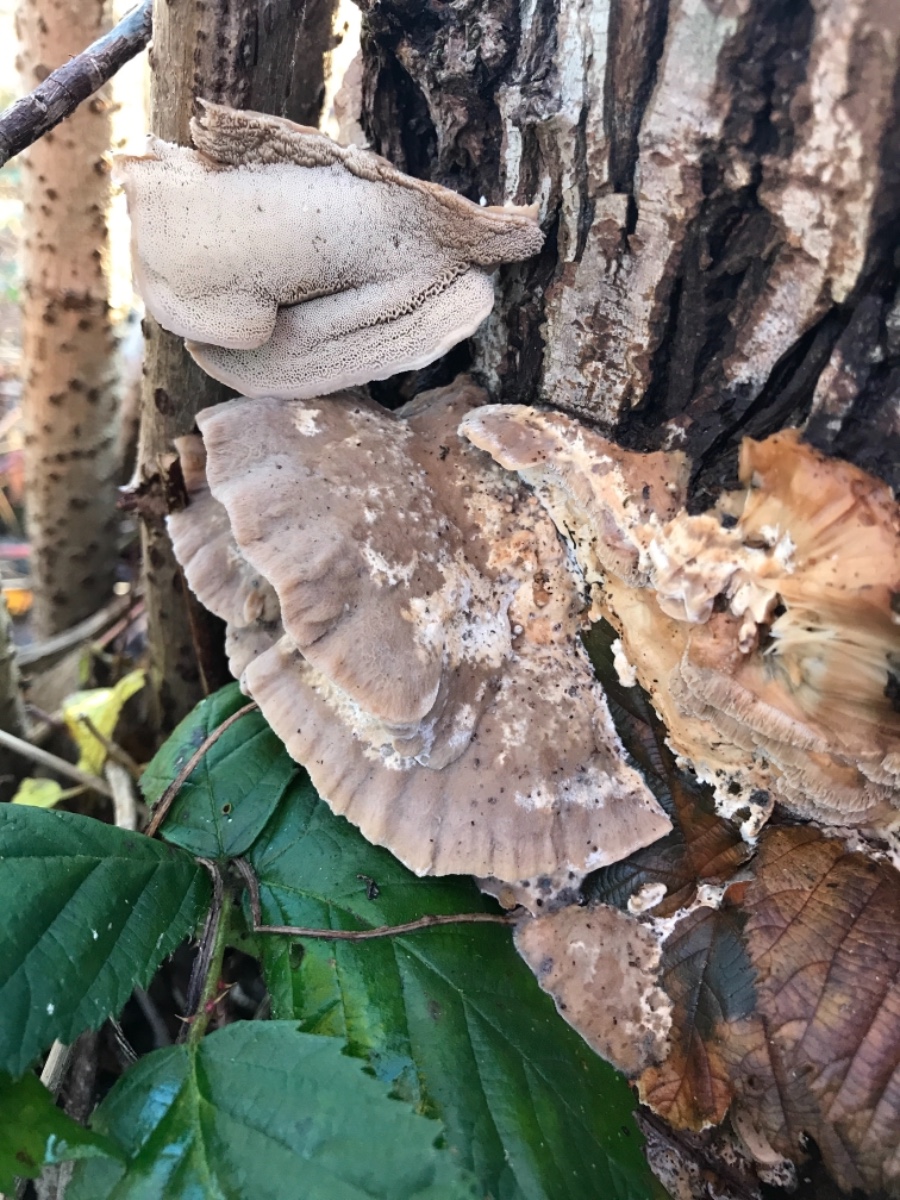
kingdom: Fungi
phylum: Basidiomycota
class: Agaricomycetes
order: Polyporales
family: Phanerochaetaceae
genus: Bjerkandera
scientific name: Bjerkandera fumosa
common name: grågul sodporesvamp
